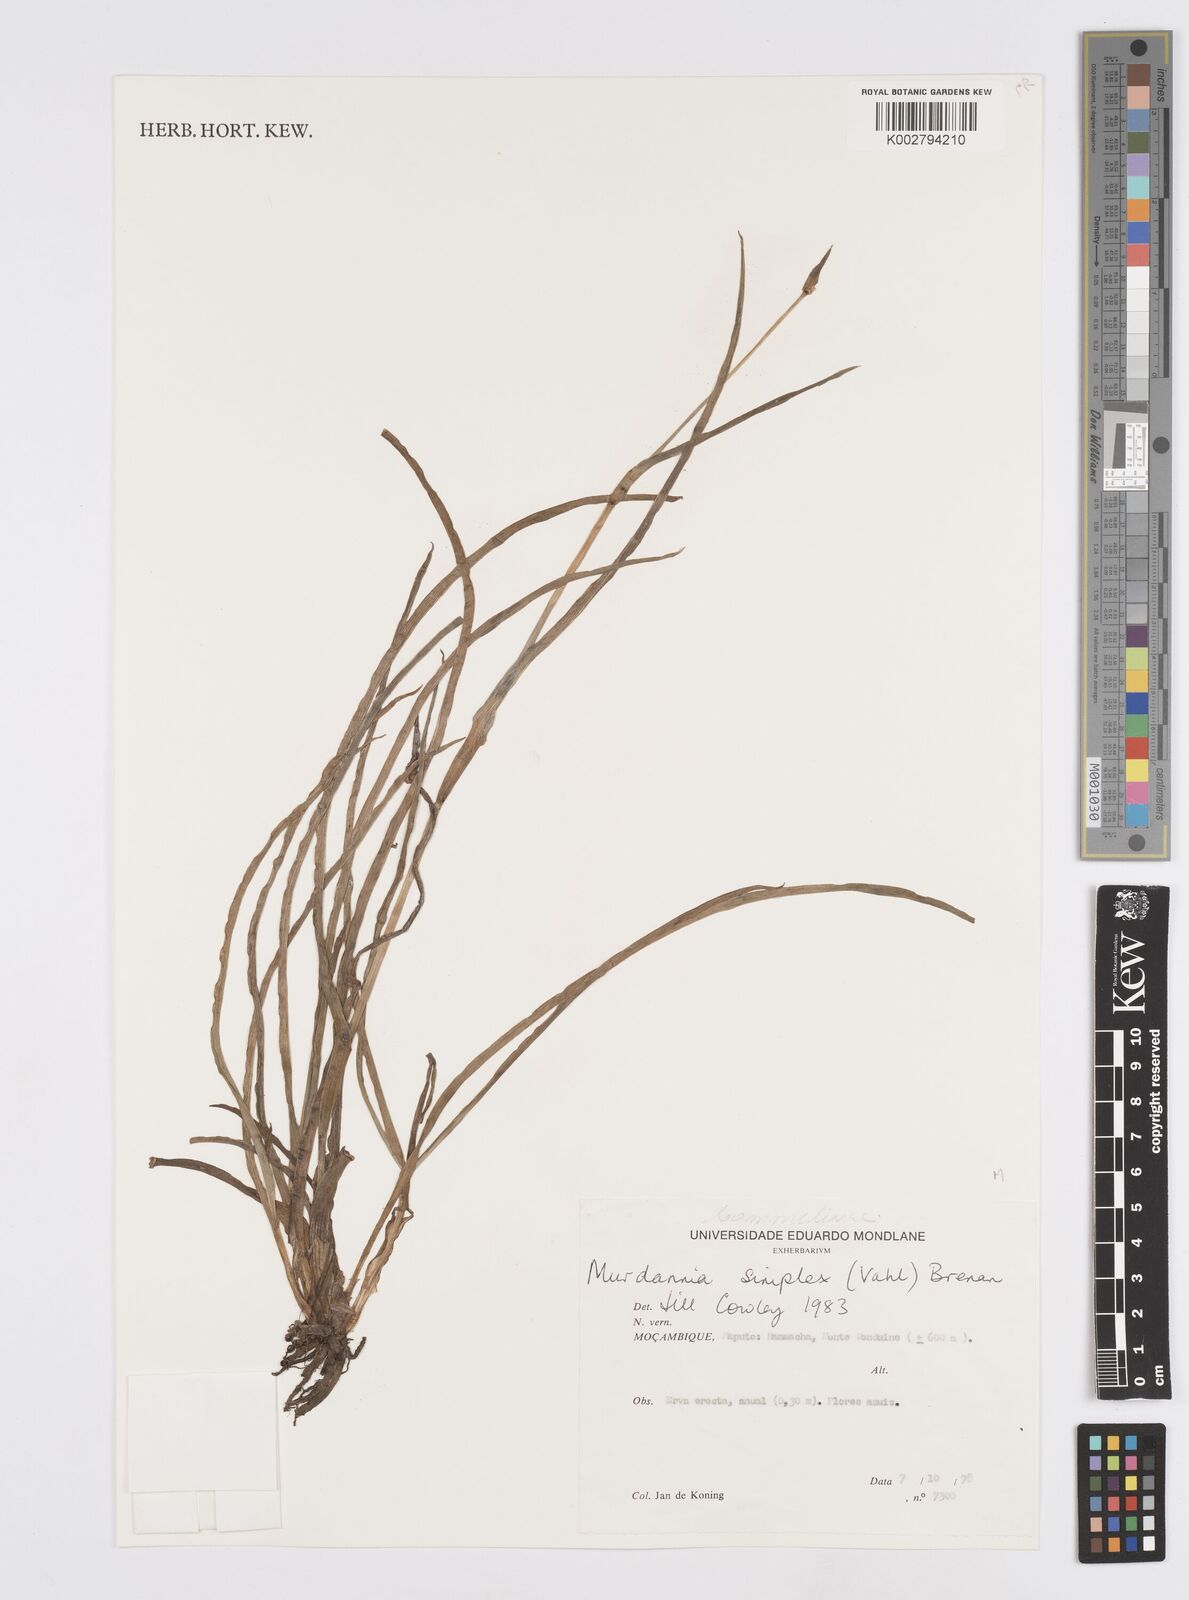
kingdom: Plantae
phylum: Tracheophyta
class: Liliopsida
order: Commelinales
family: Commelinaceae
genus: Murdannia
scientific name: Murdannia simplex
